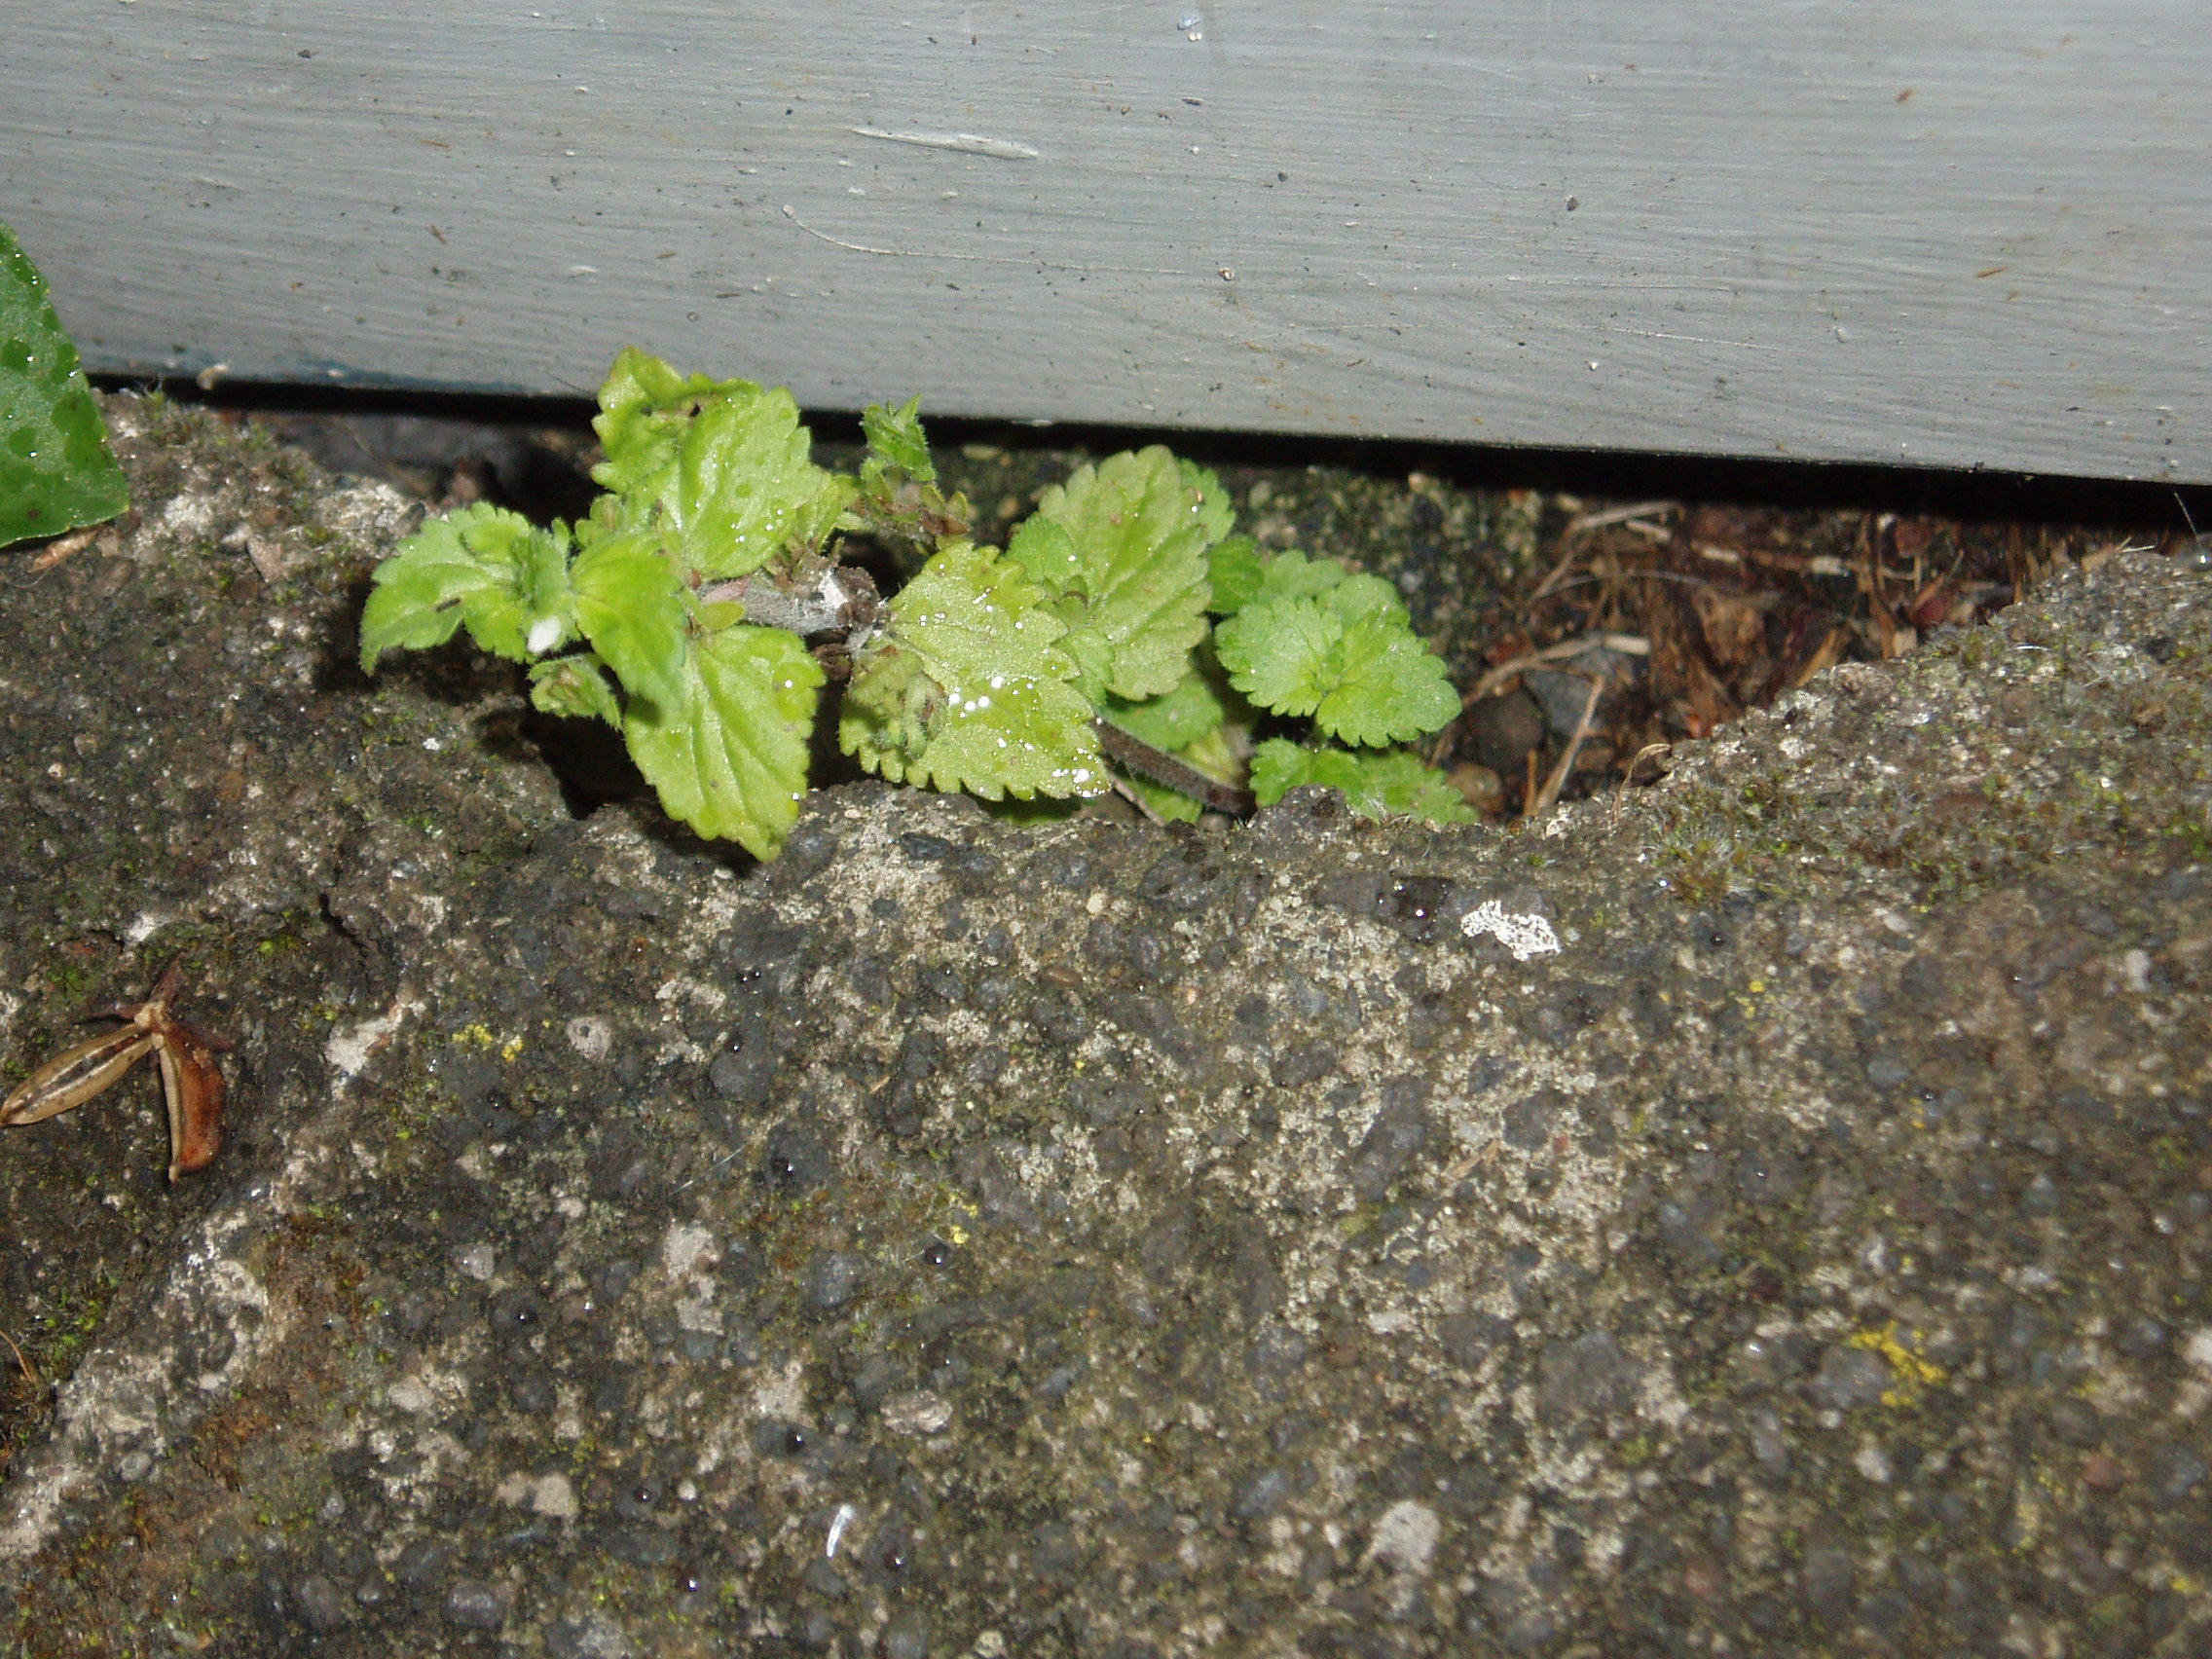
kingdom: Plantae
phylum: Tracheophyta
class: Magnoliopsida
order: Lamiales
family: Plantaginaceae
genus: Veronica
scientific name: Veronica javanica
